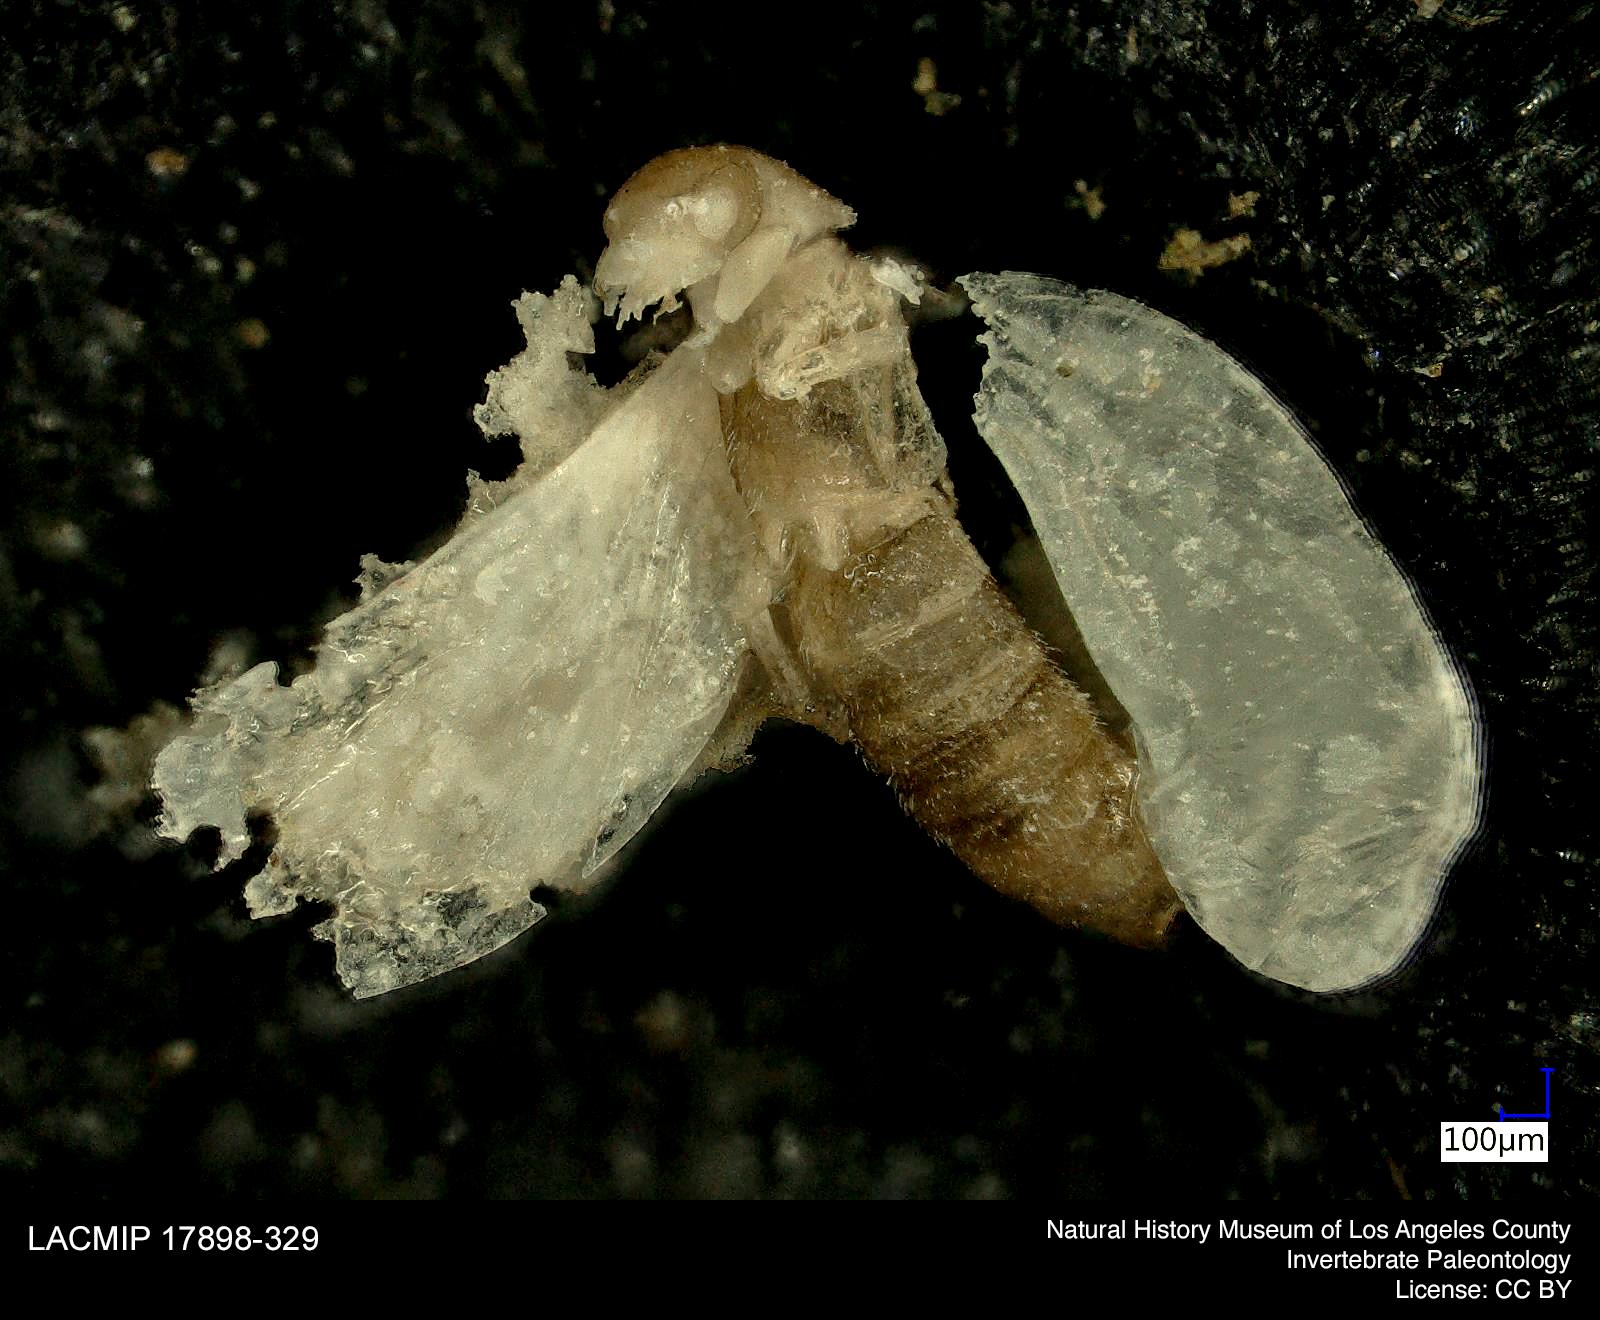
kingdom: Animalia
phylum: Arthropoda
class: Insecta
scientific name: Insecta
